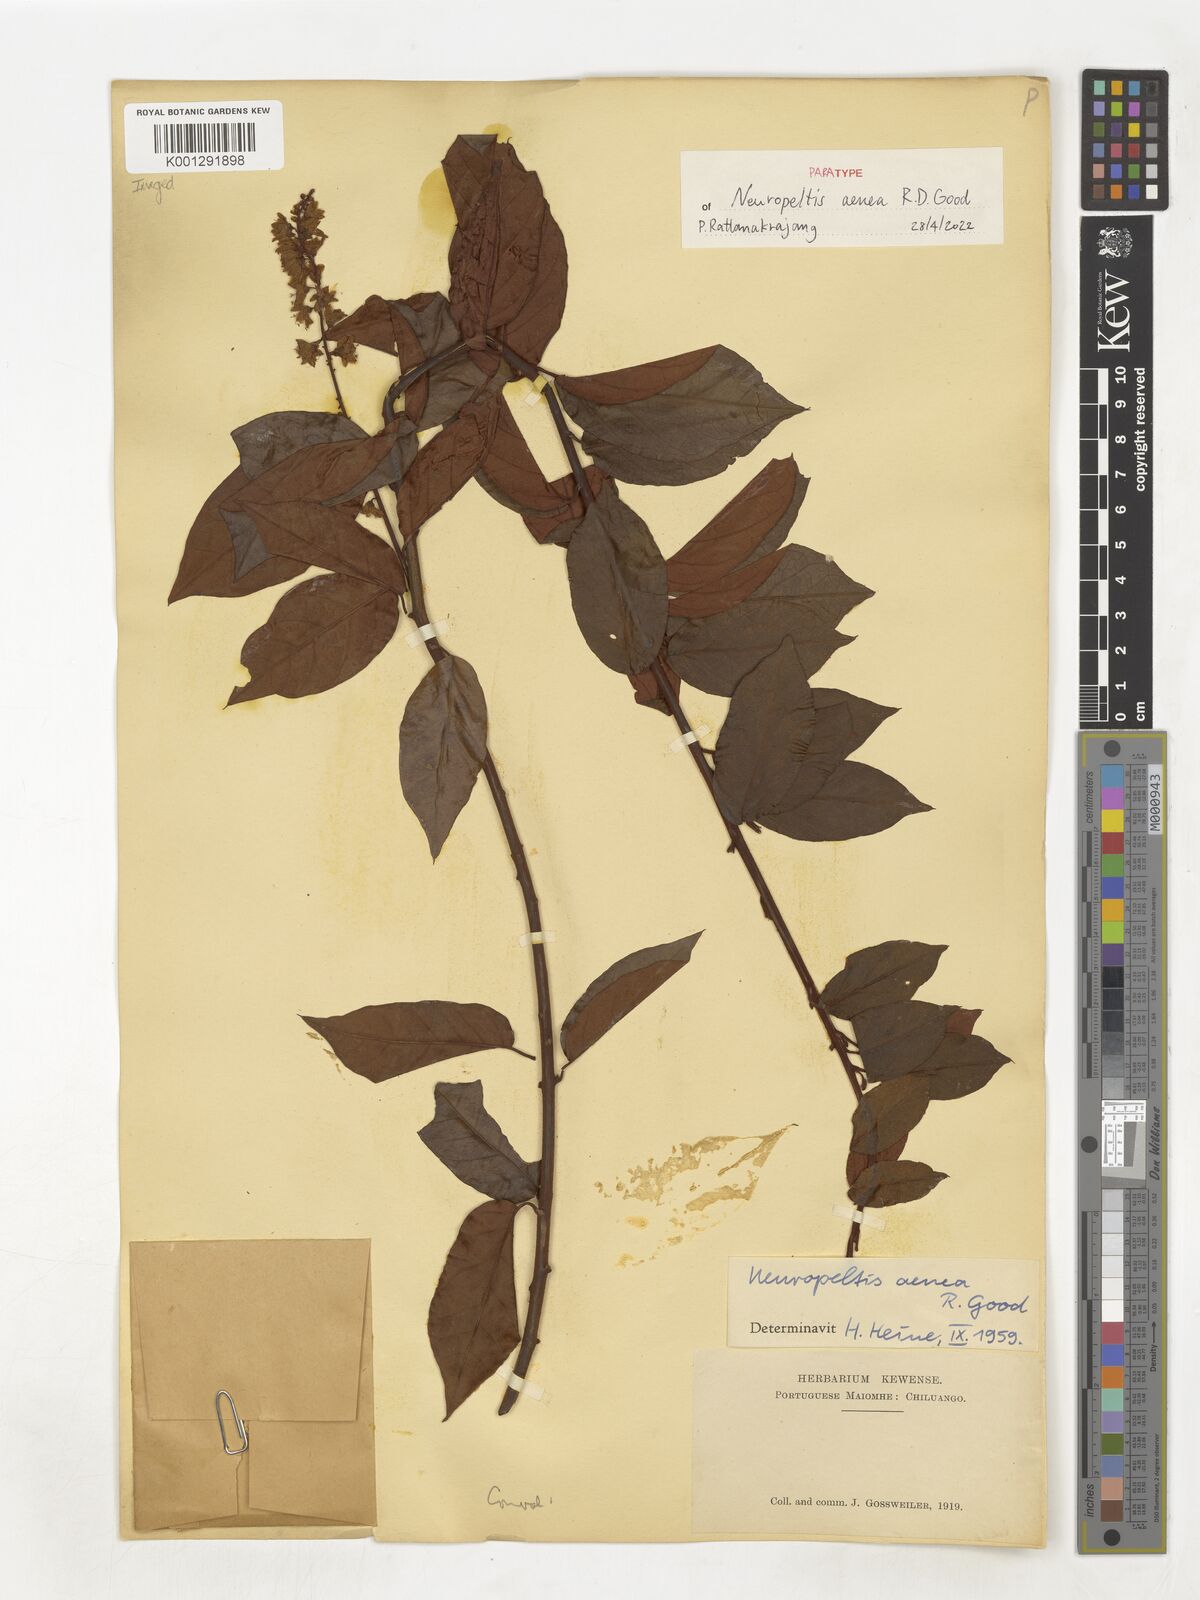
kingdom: Plantae
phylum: Tracheophyta
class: Magnoliopsida
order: Solanales
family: Convolvulaceae
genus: Neuropeltis
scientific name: Neuropeltis aenea
